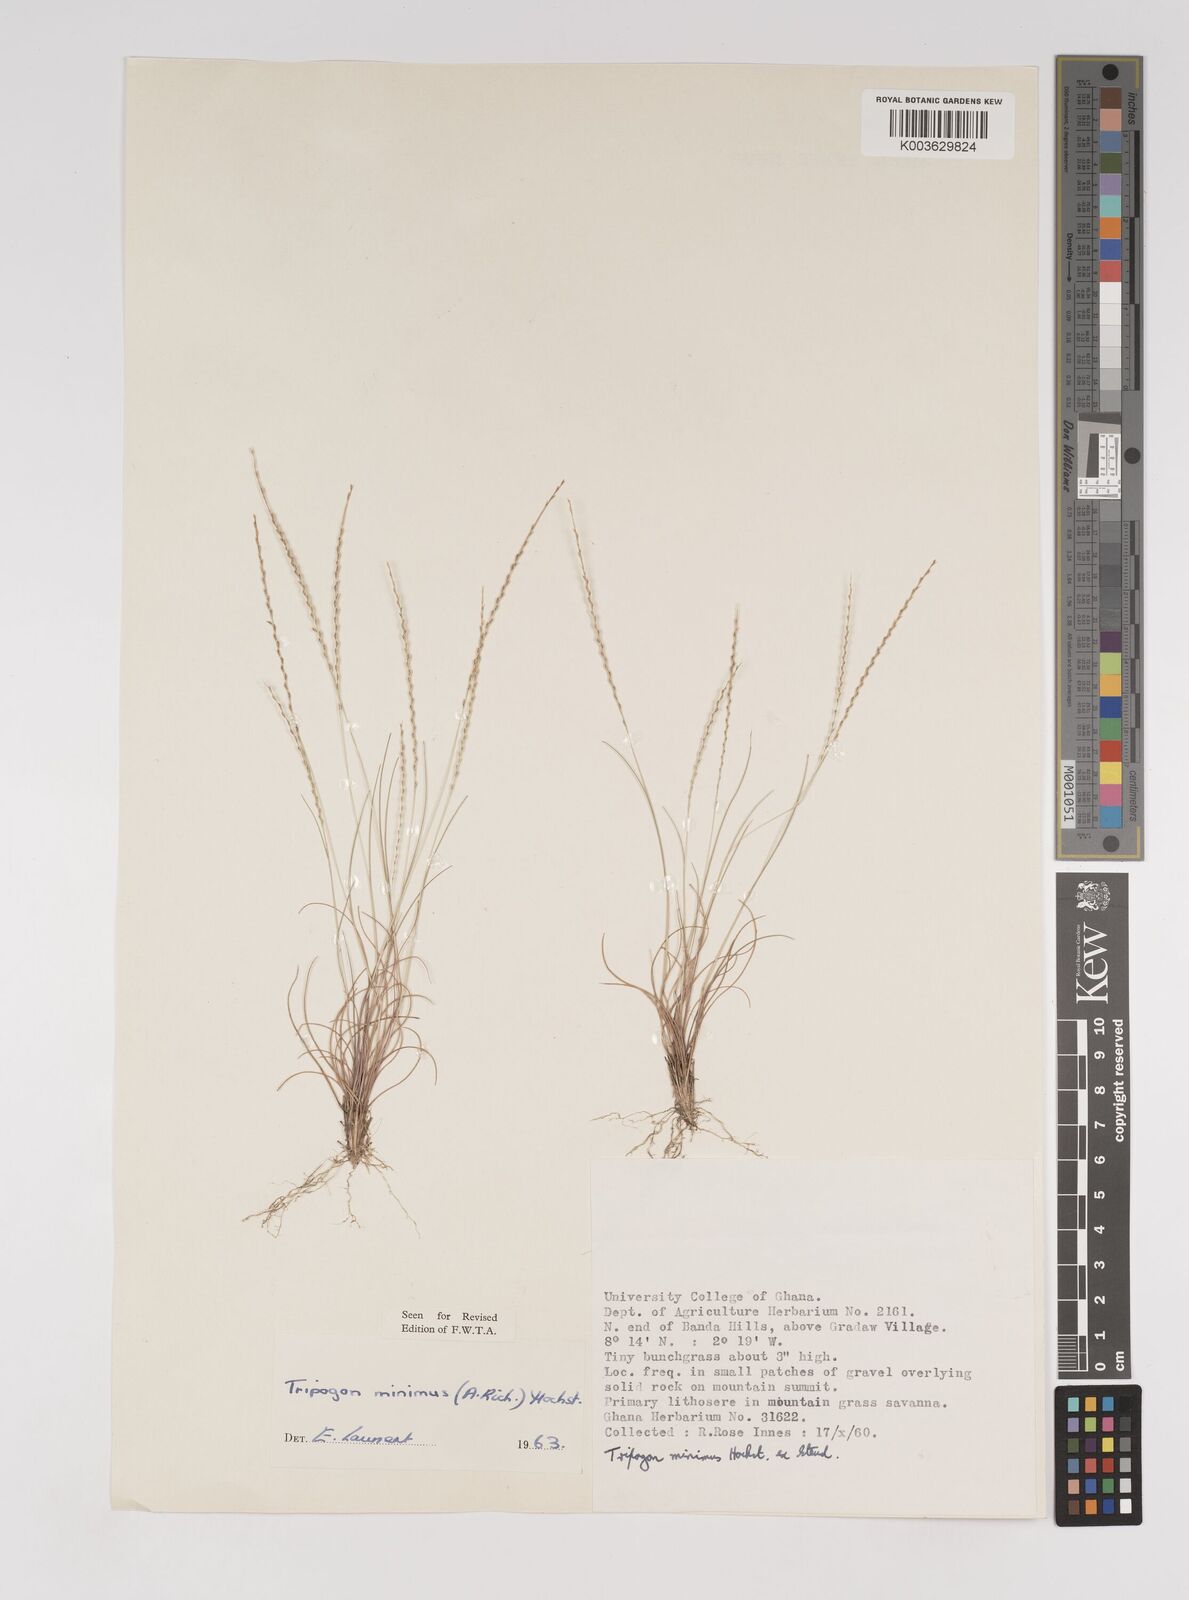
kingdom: Plantae
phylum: Tracheophyta
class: Liliopsida
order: Poales
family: Poaceae
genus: Tripogonella
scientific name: Tripogonella minima
